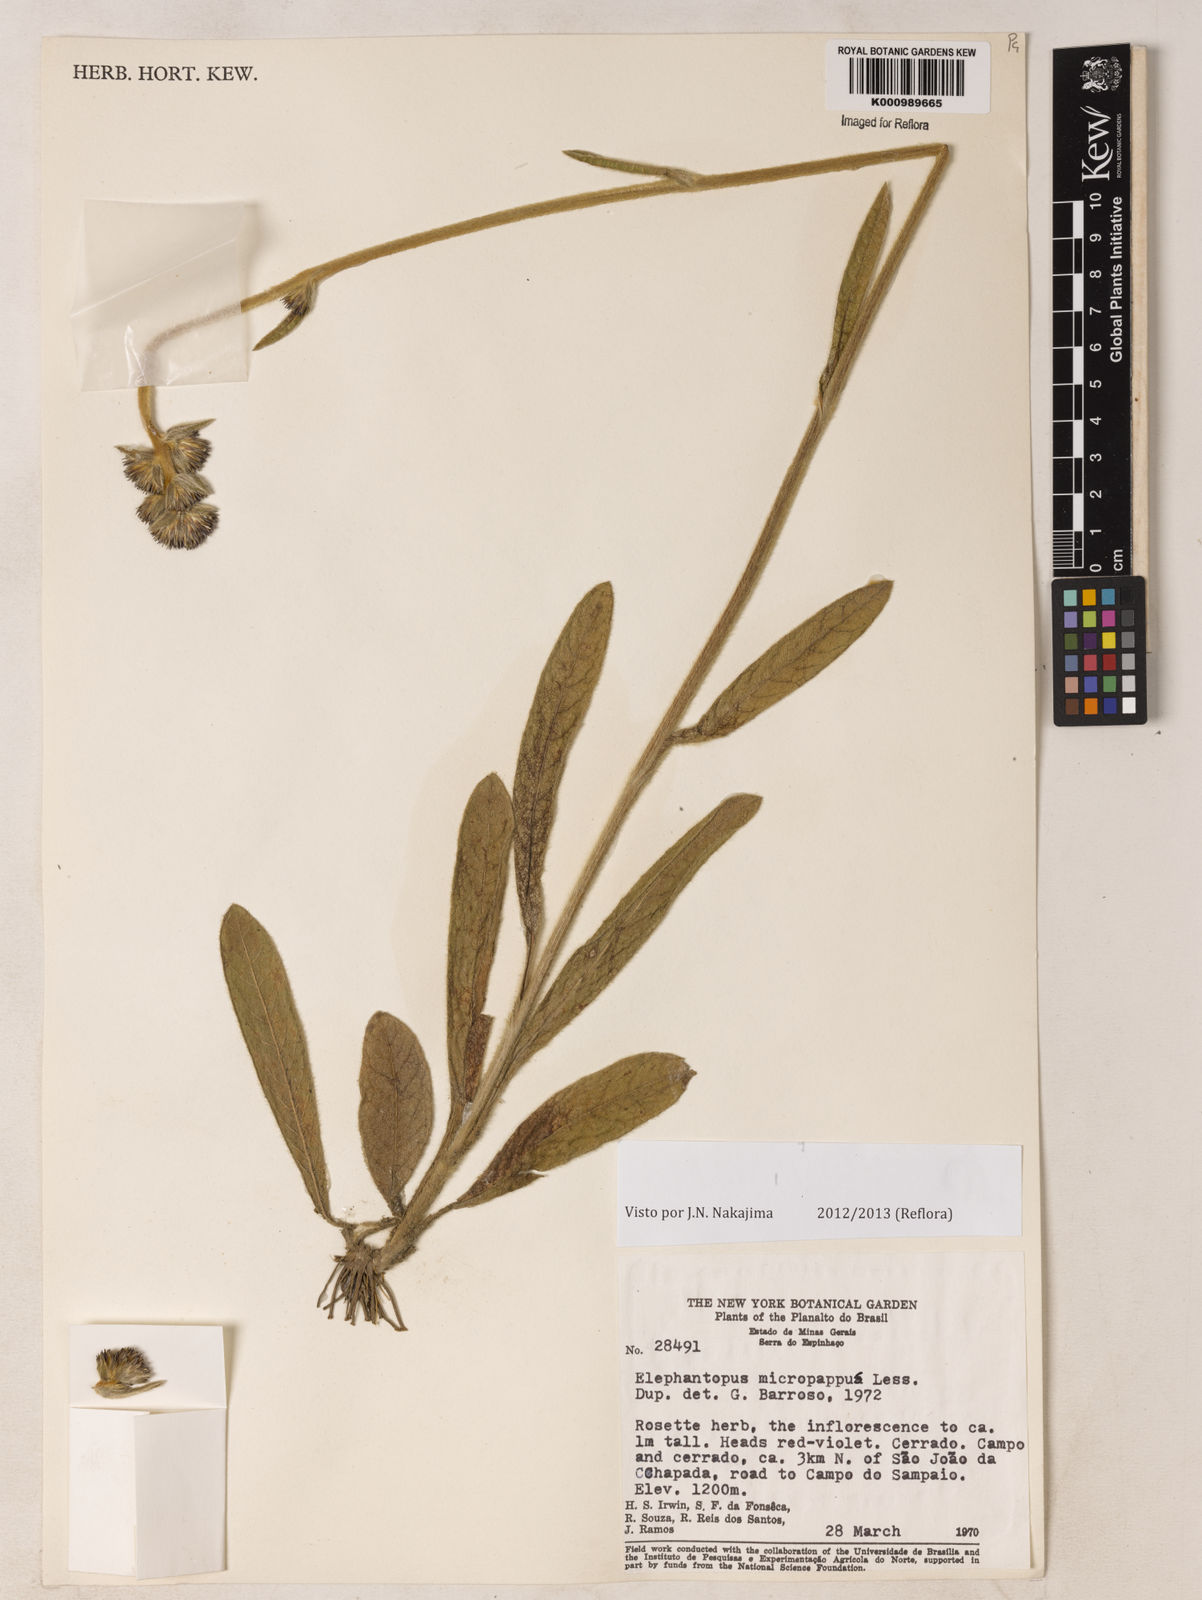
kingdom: Plantae
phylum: Tracheophyta
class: Magnoliopsida
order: Asterales
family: Asteraceae
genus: Elephantopus
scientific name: Elephantopus micropappus
